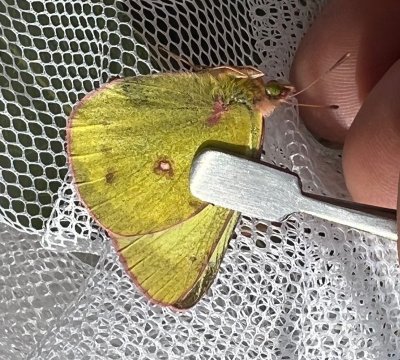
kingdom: Animalia
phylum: Arthropoda
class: Insecta
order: Lepidoptera
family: Pieridae
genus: Colias
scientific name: Colias philodice
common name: Clouded Sulphur
